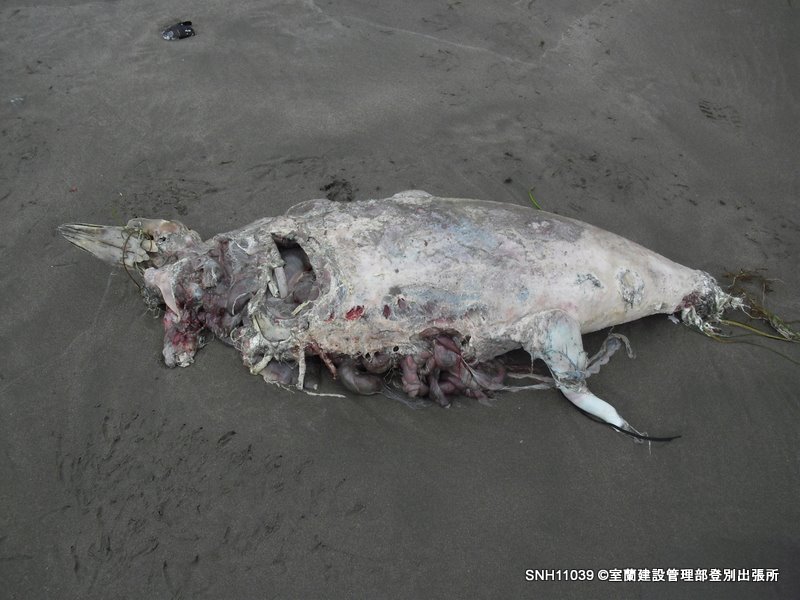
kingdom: Animalia
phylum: Chordata
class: Mammalia
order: Cetacea
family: Phocoenidae
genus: Phocoena
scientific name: Phocoena phocoena
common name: Harbour porpoise
